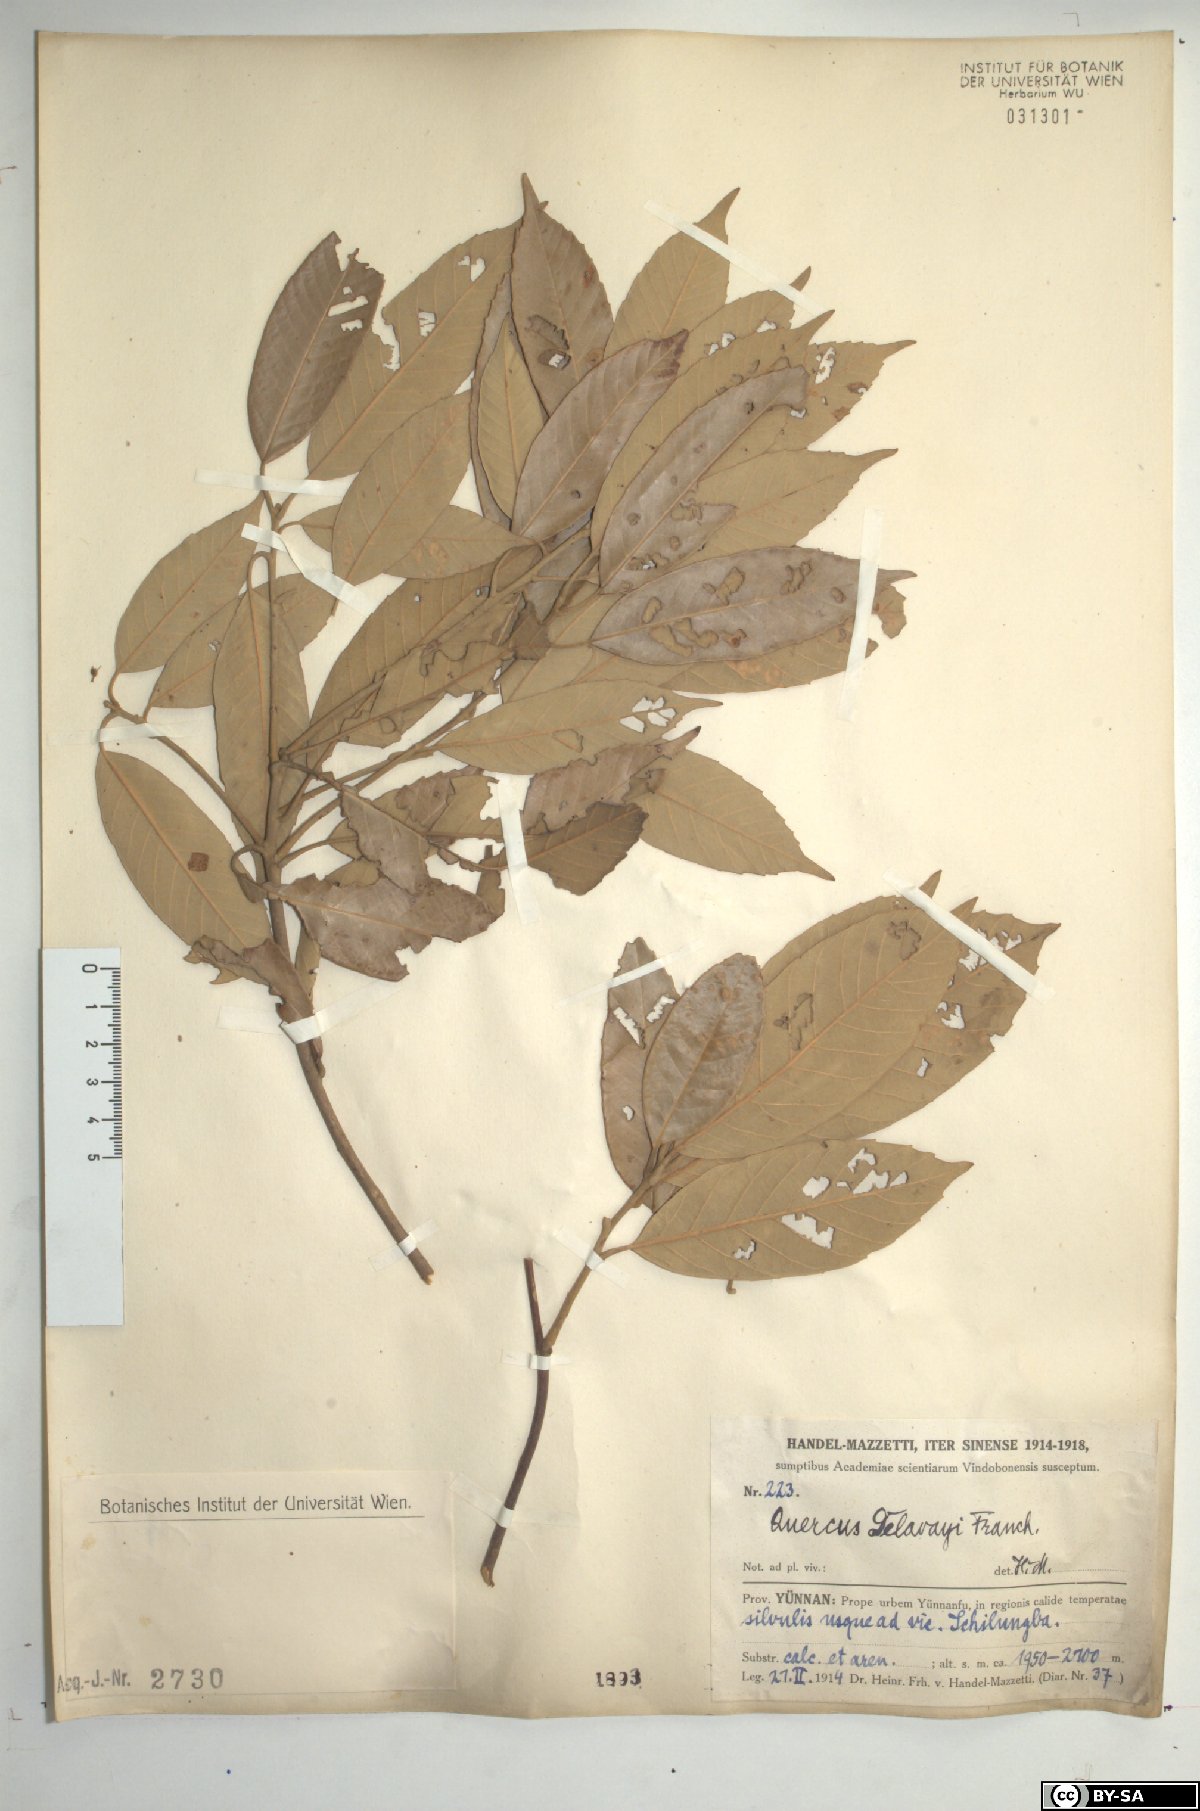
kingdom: Plantae
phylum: Tracheophyta
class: Magnoliopsida
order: Fagales
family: Fagaceae
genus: Quercus
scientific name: Quercus delavayi
